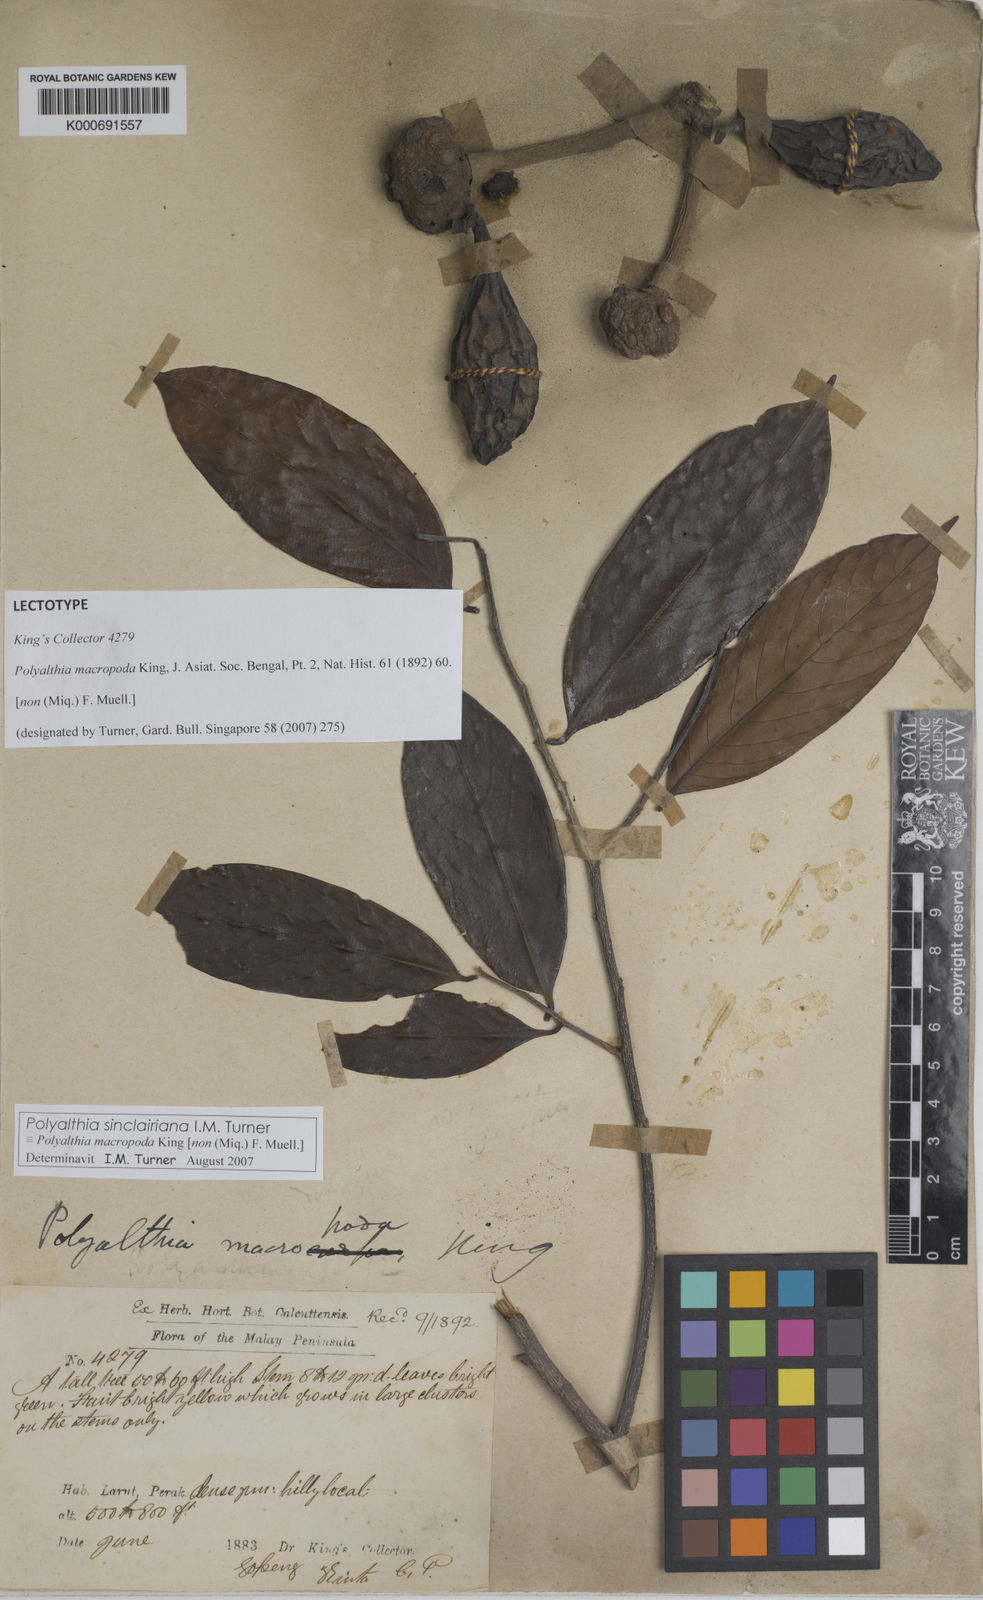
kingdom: Plantae
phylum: Tracheophyta
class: Magnoliopsida
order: Magnoliales
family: Annonaceae
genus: Polyalthia
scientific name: Polyalthia sinclairiana
